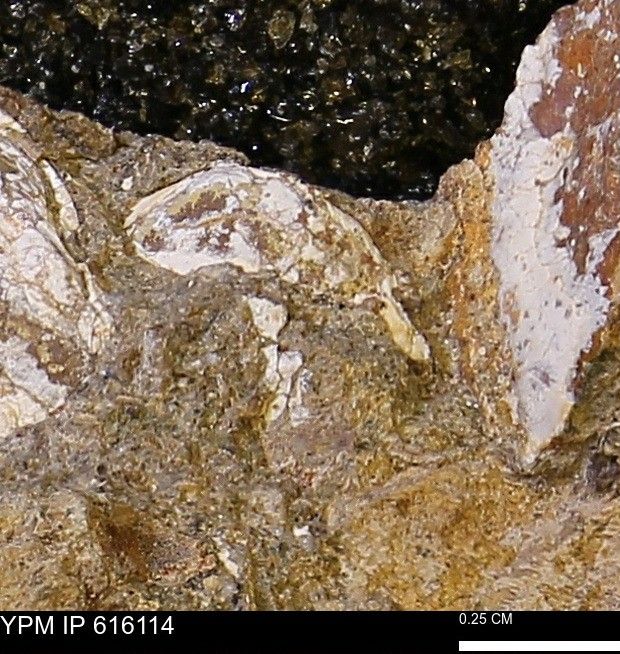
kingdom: Animalia
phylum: Mollusca
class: Bivalvia
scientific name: Bivalvia
